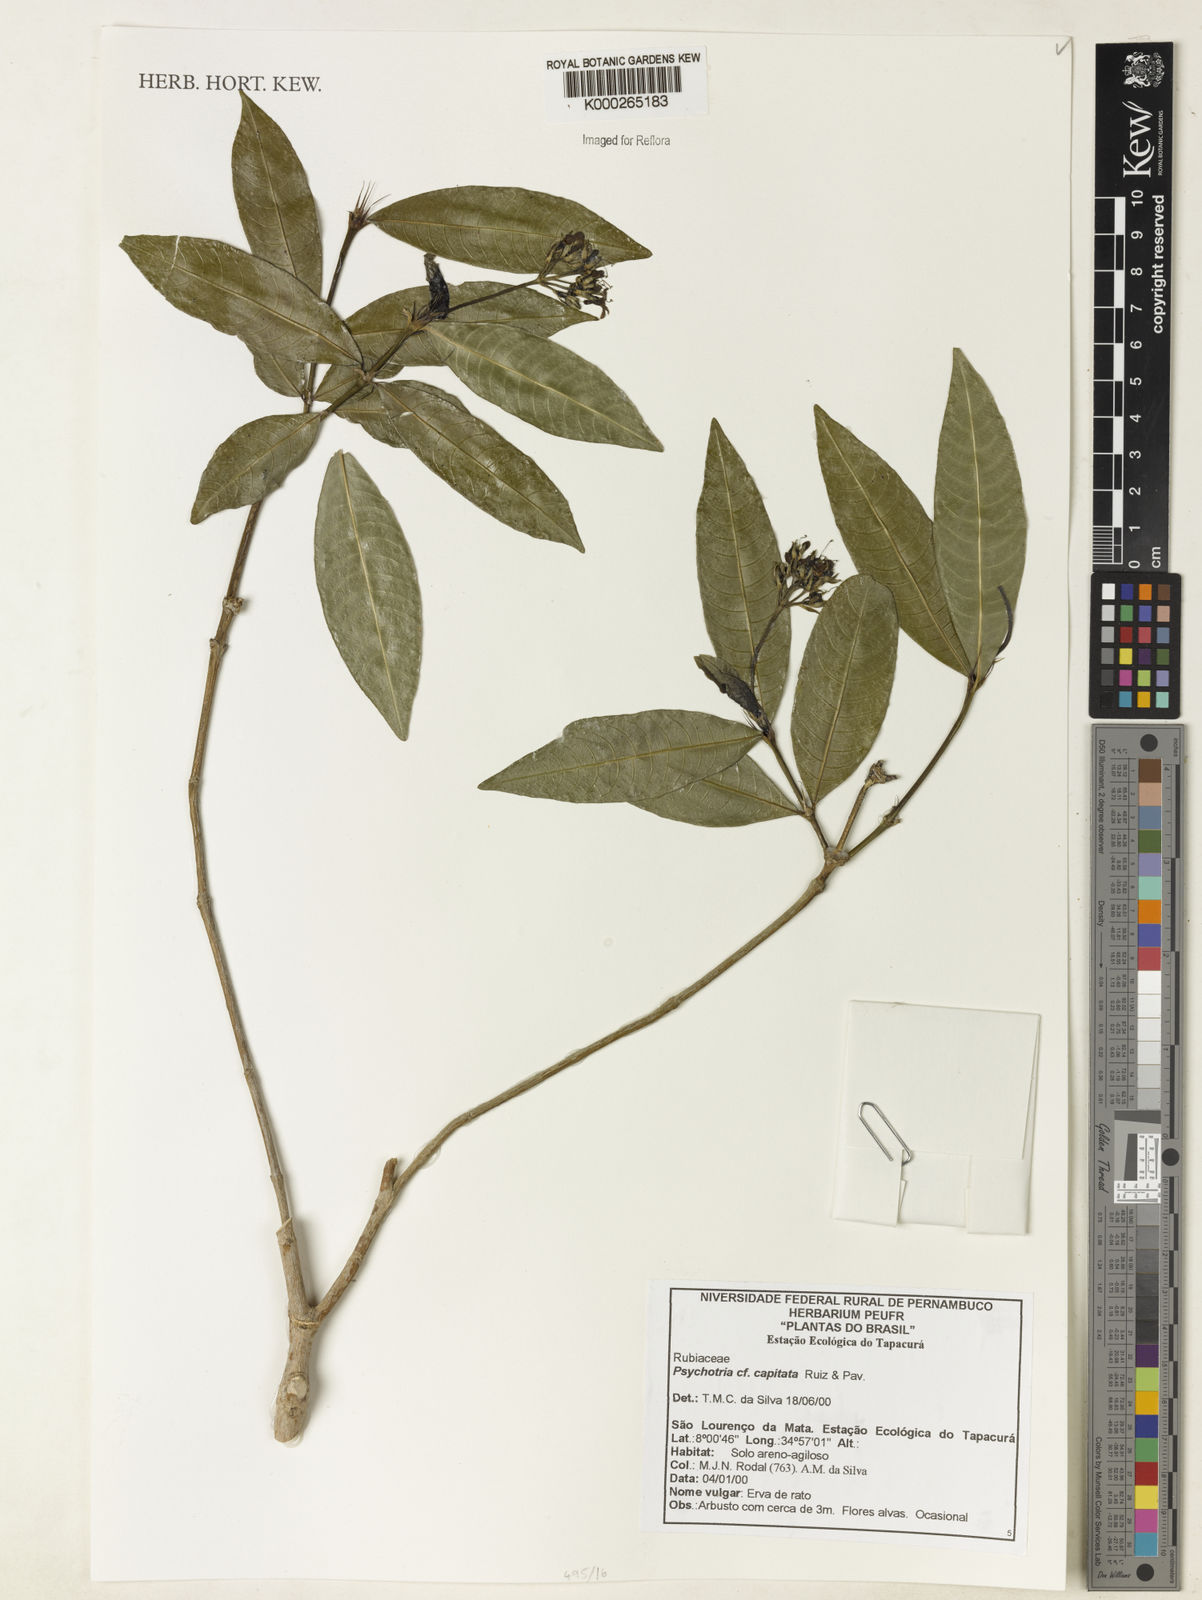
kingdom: Plantae
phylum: Tracheophyta
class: Magnoliopsida
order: Gentianales
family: Rubiaceae
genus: Psychotria
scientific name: Psychotria
